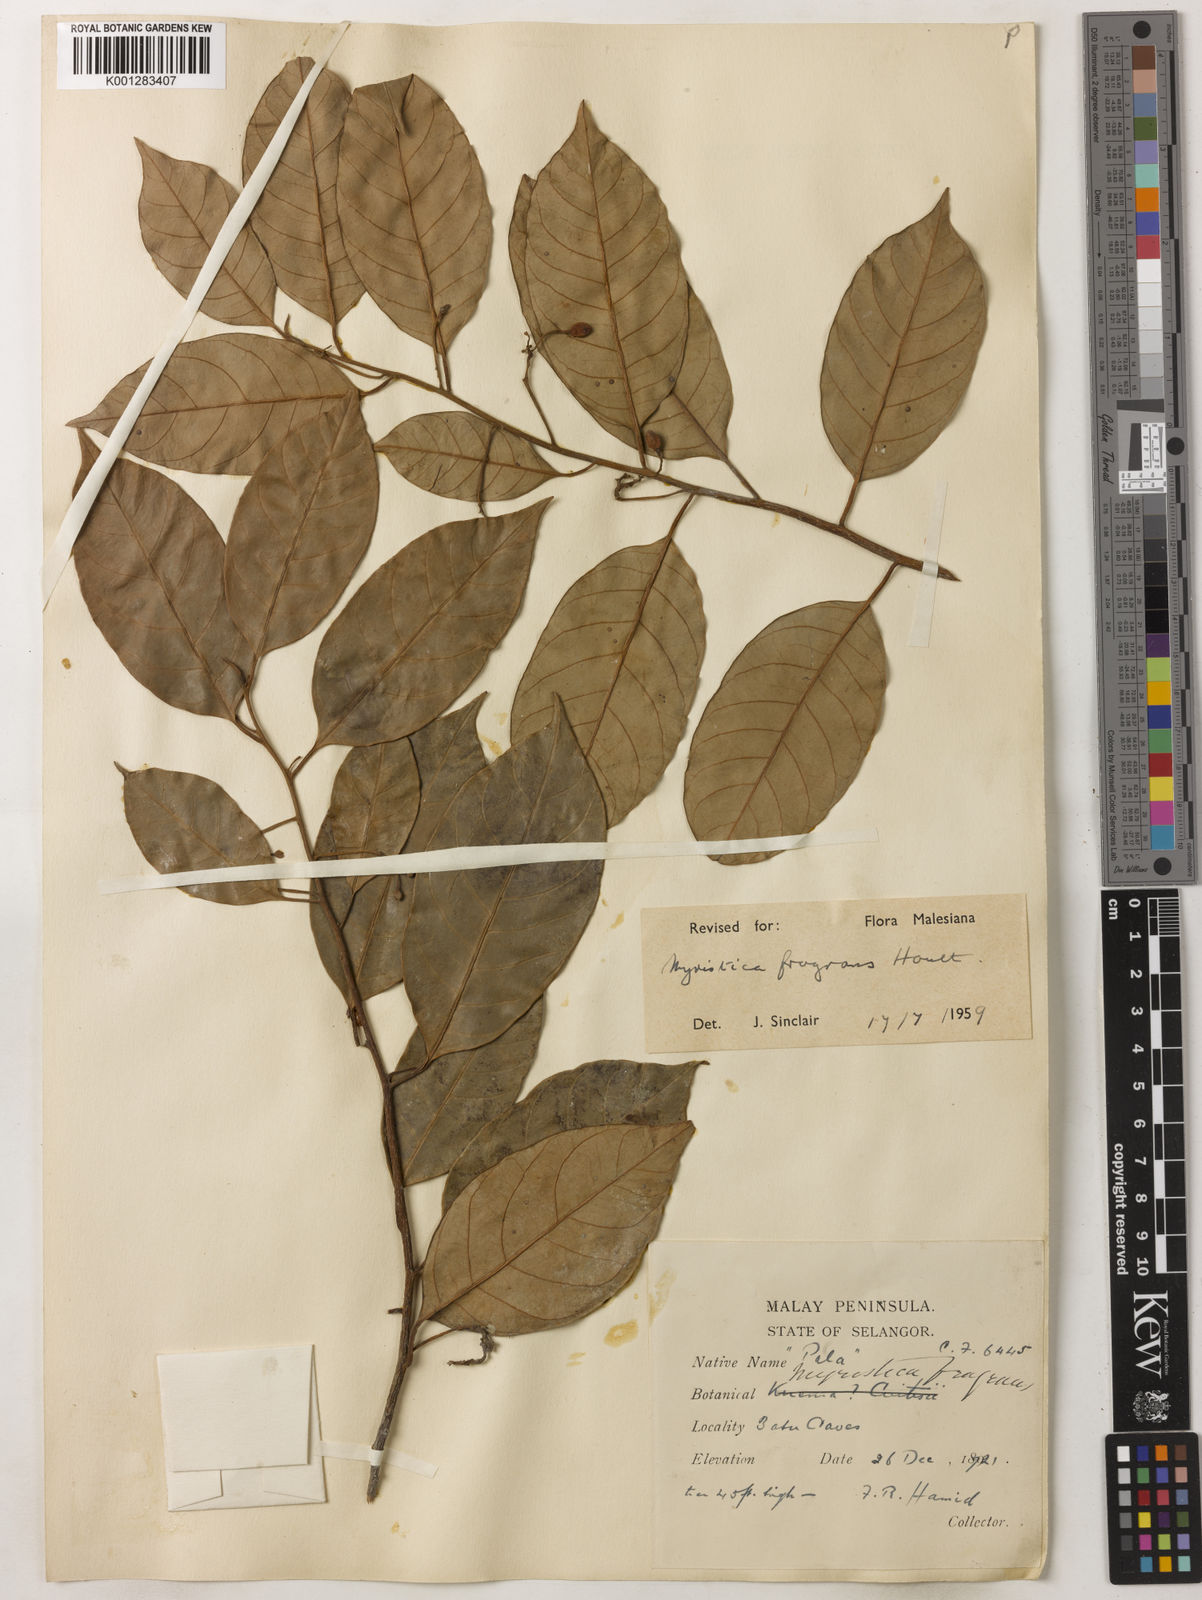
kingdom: Plantae
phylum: Tracheophyta
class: Magnoliopsida
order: Magnoliales
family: Myristicaceae
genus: Myristica
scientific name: Myristica fragrans
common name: Nutmeg
